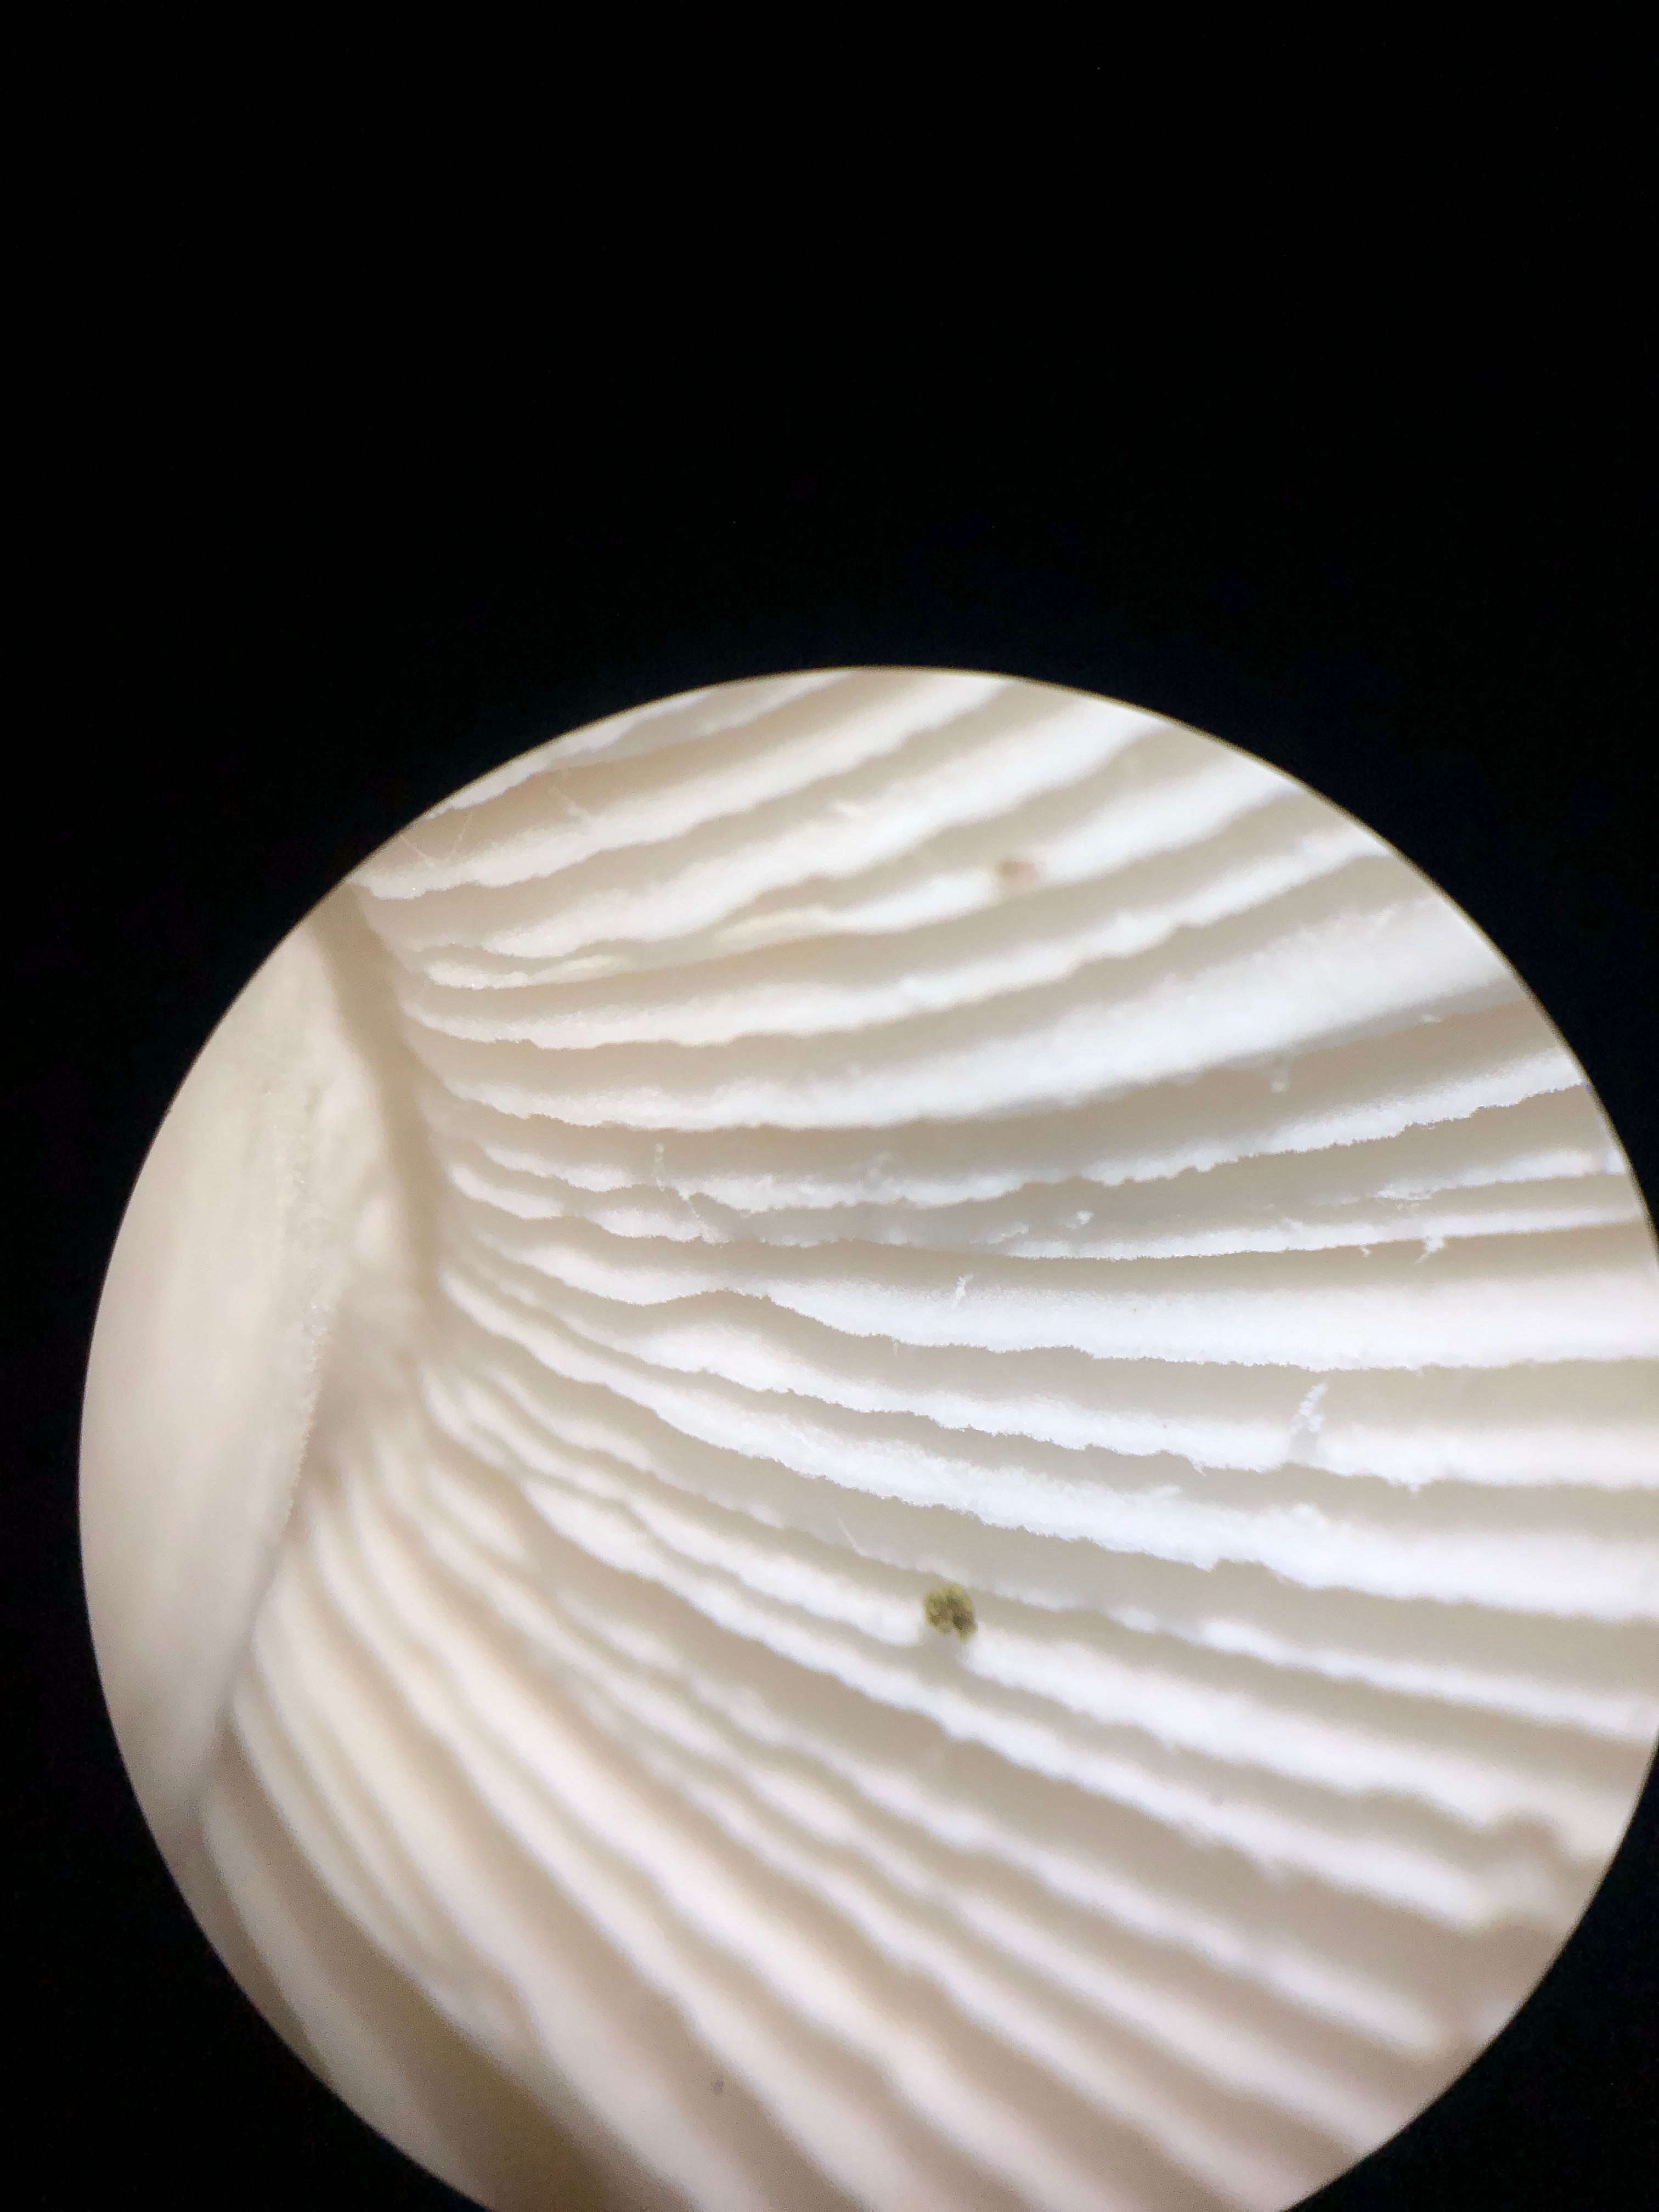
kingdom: Fungi
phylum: Basidiomycota
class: Agaricomycetes
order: Russulales
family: Russulaceae
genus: Russula
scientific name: Russula fragilis
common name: savbladet skørhat
